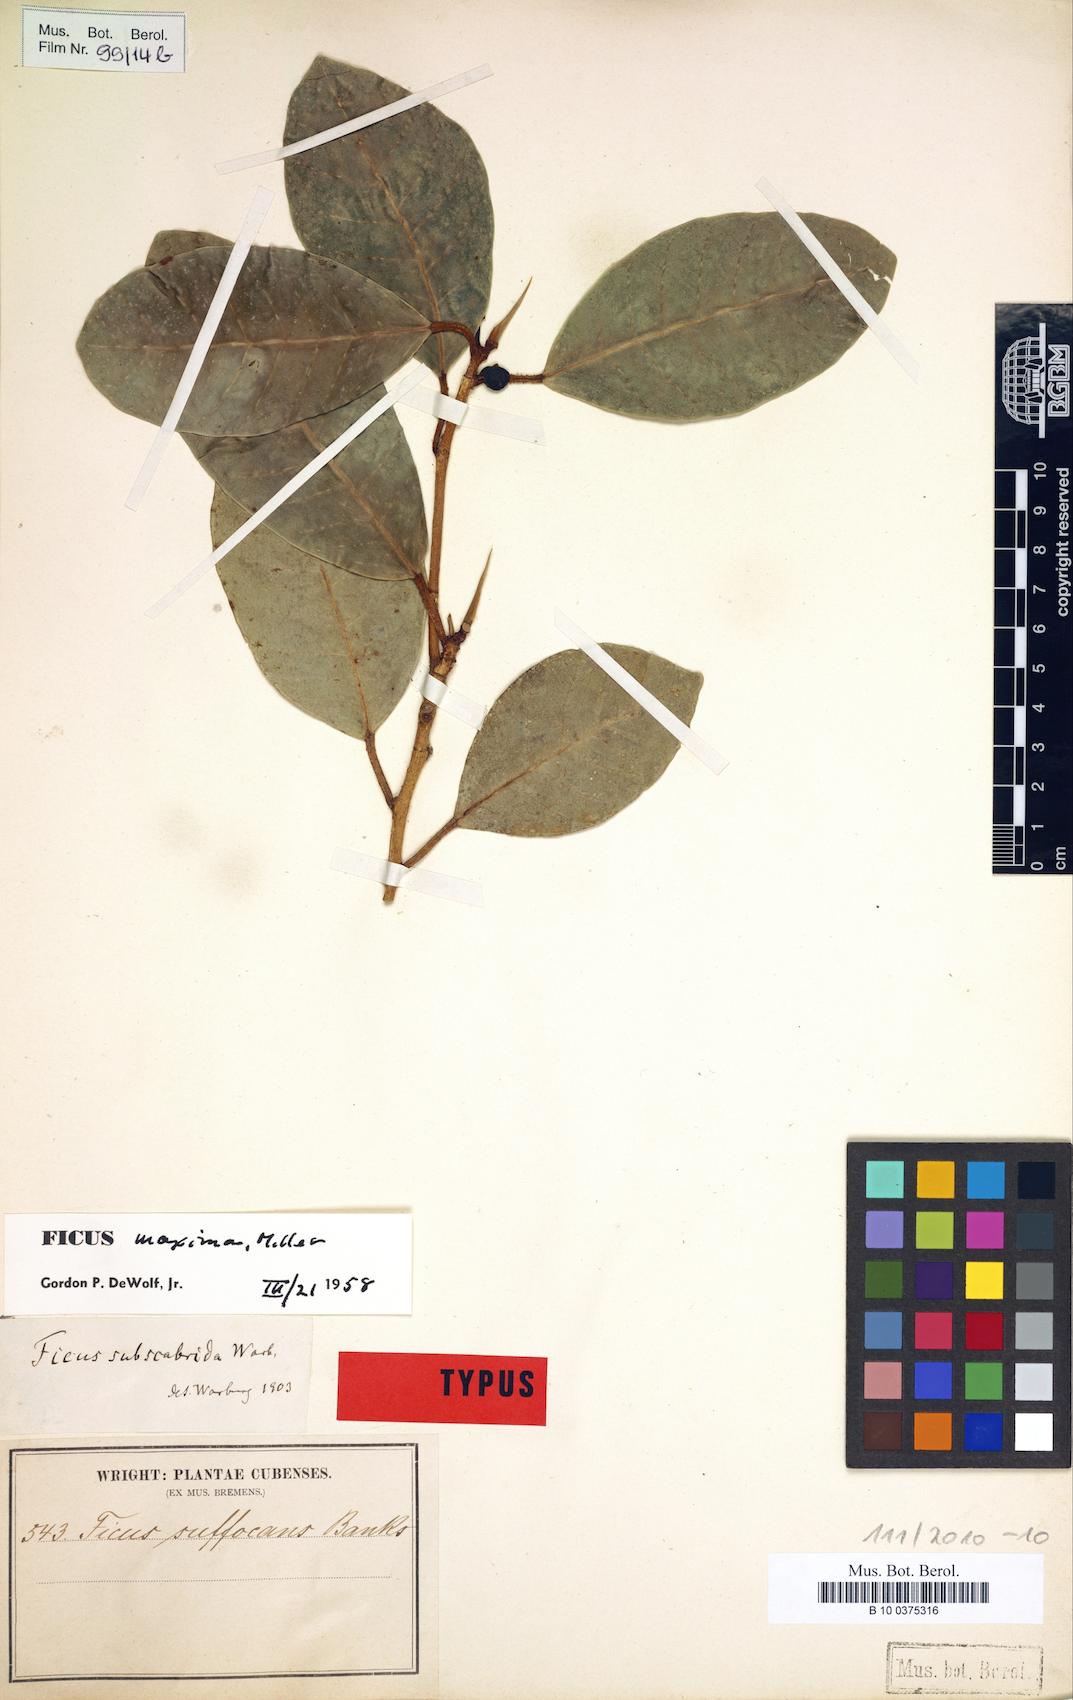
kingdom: Plantae
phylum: Tracheophyta
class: Magnoliopsida
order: Rosales
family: Moraceae
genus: Ficus
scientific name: Ficus maxima
